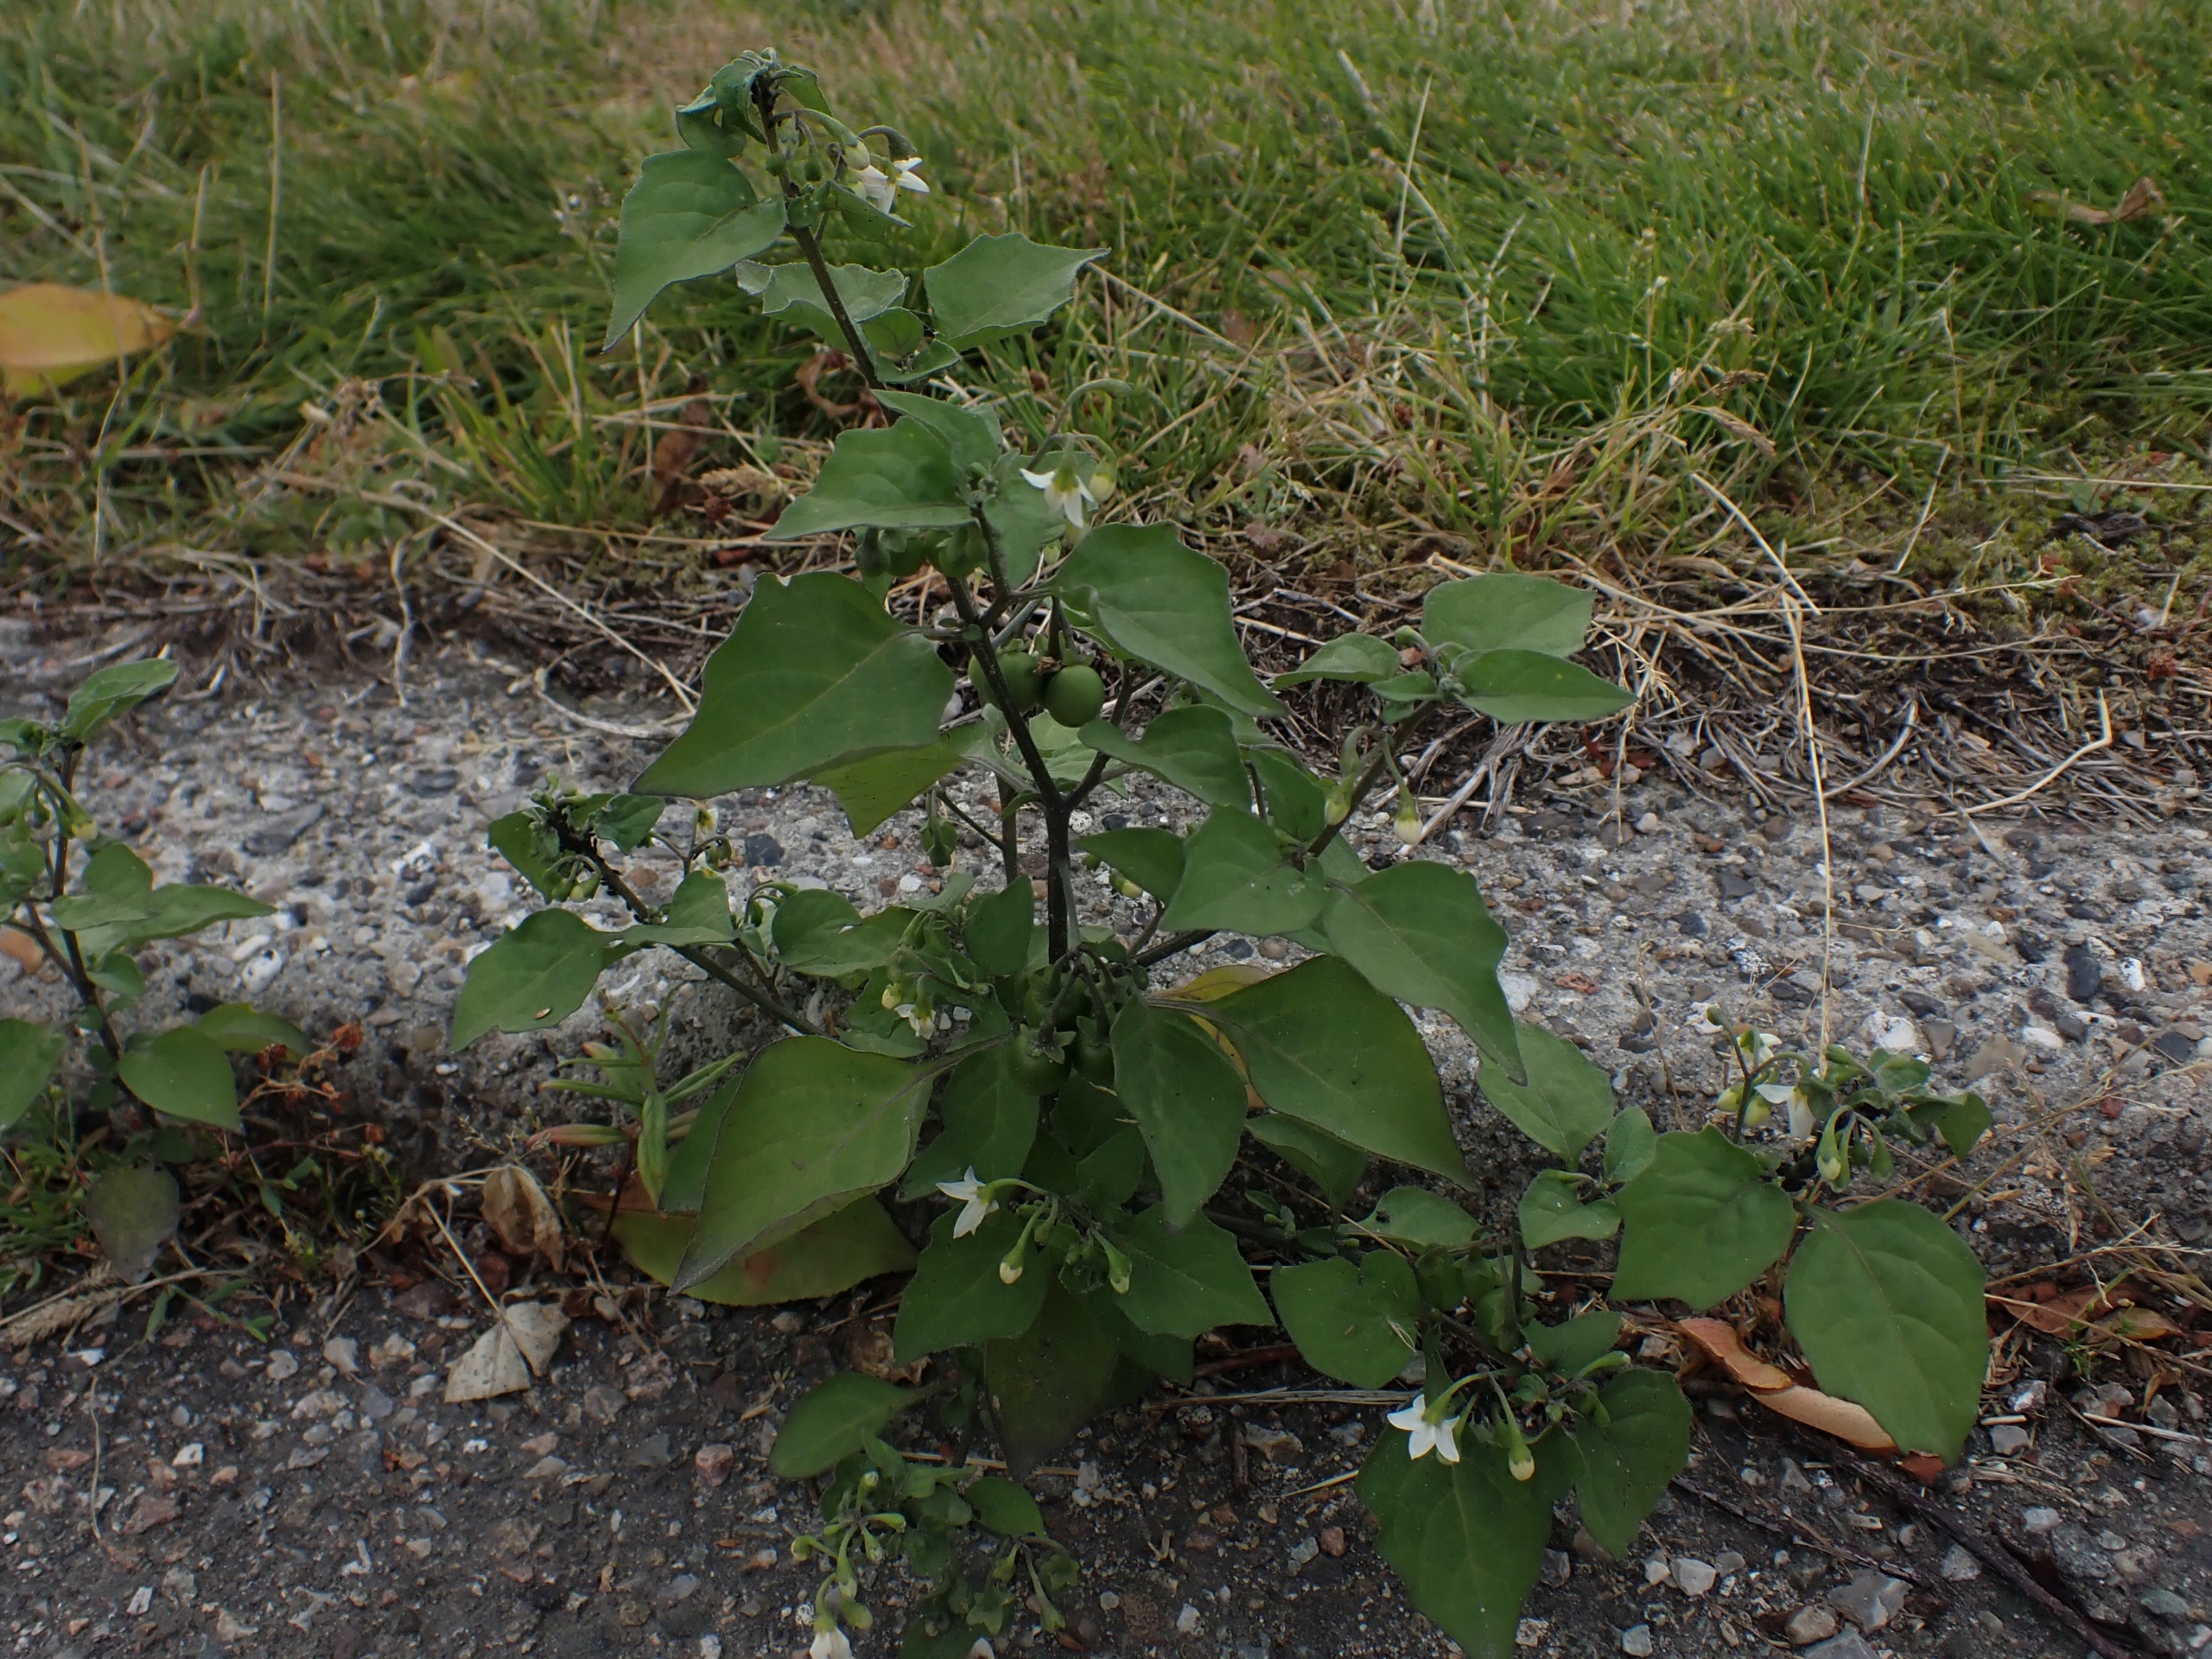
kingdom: Plantae
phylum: Tracheophyta
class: Magnoliopsida
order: Solanales
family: Solanaceae
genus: Solanum
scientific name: Solanum nigrum
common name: Sort natskygge
